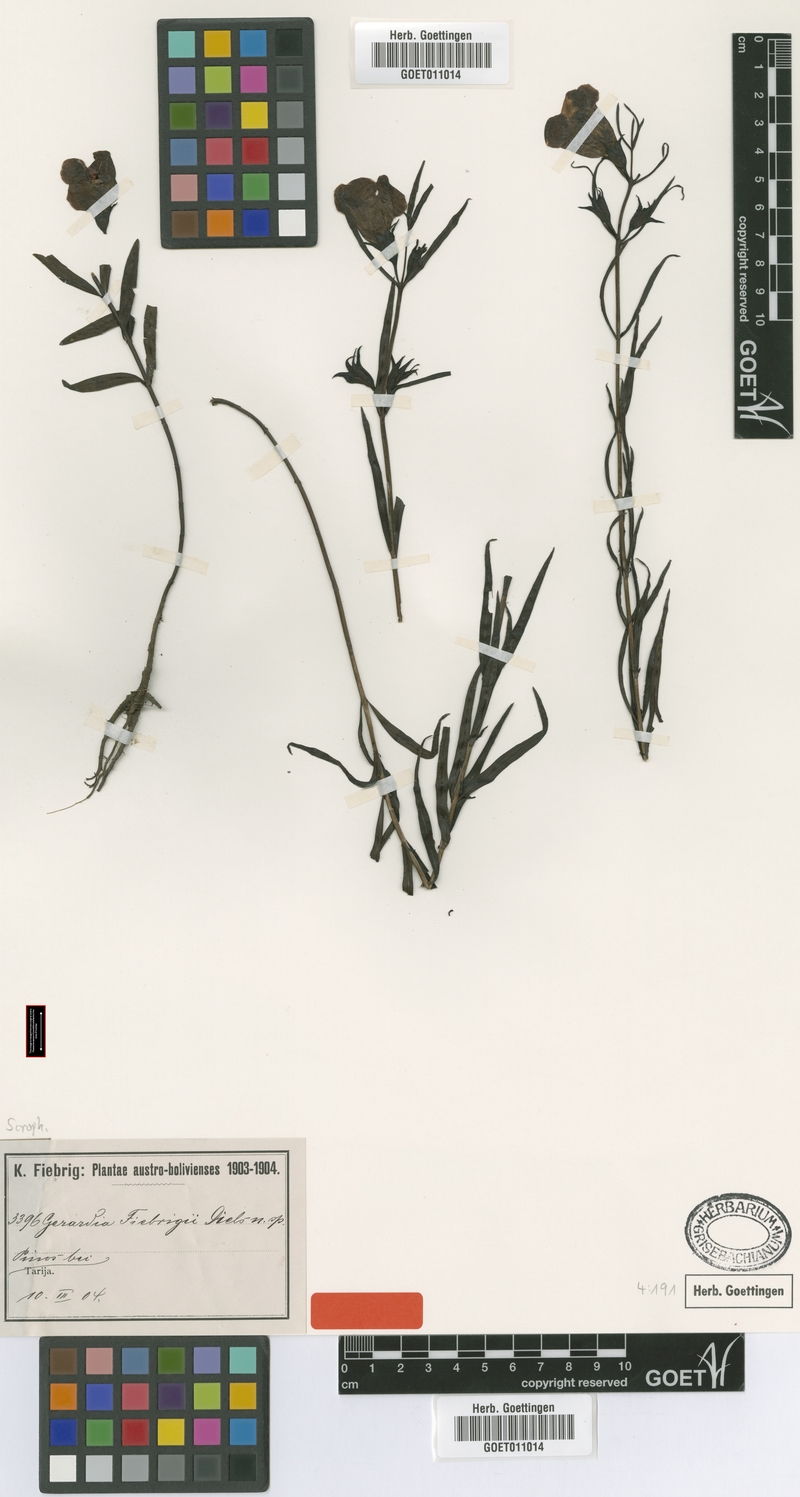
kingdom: Plantae
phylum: Tracheophyta
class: Magnoliopsida
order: Lamiales
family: Orobanchaceae
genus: Agalinis
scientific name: Agalinis fiebrigii
